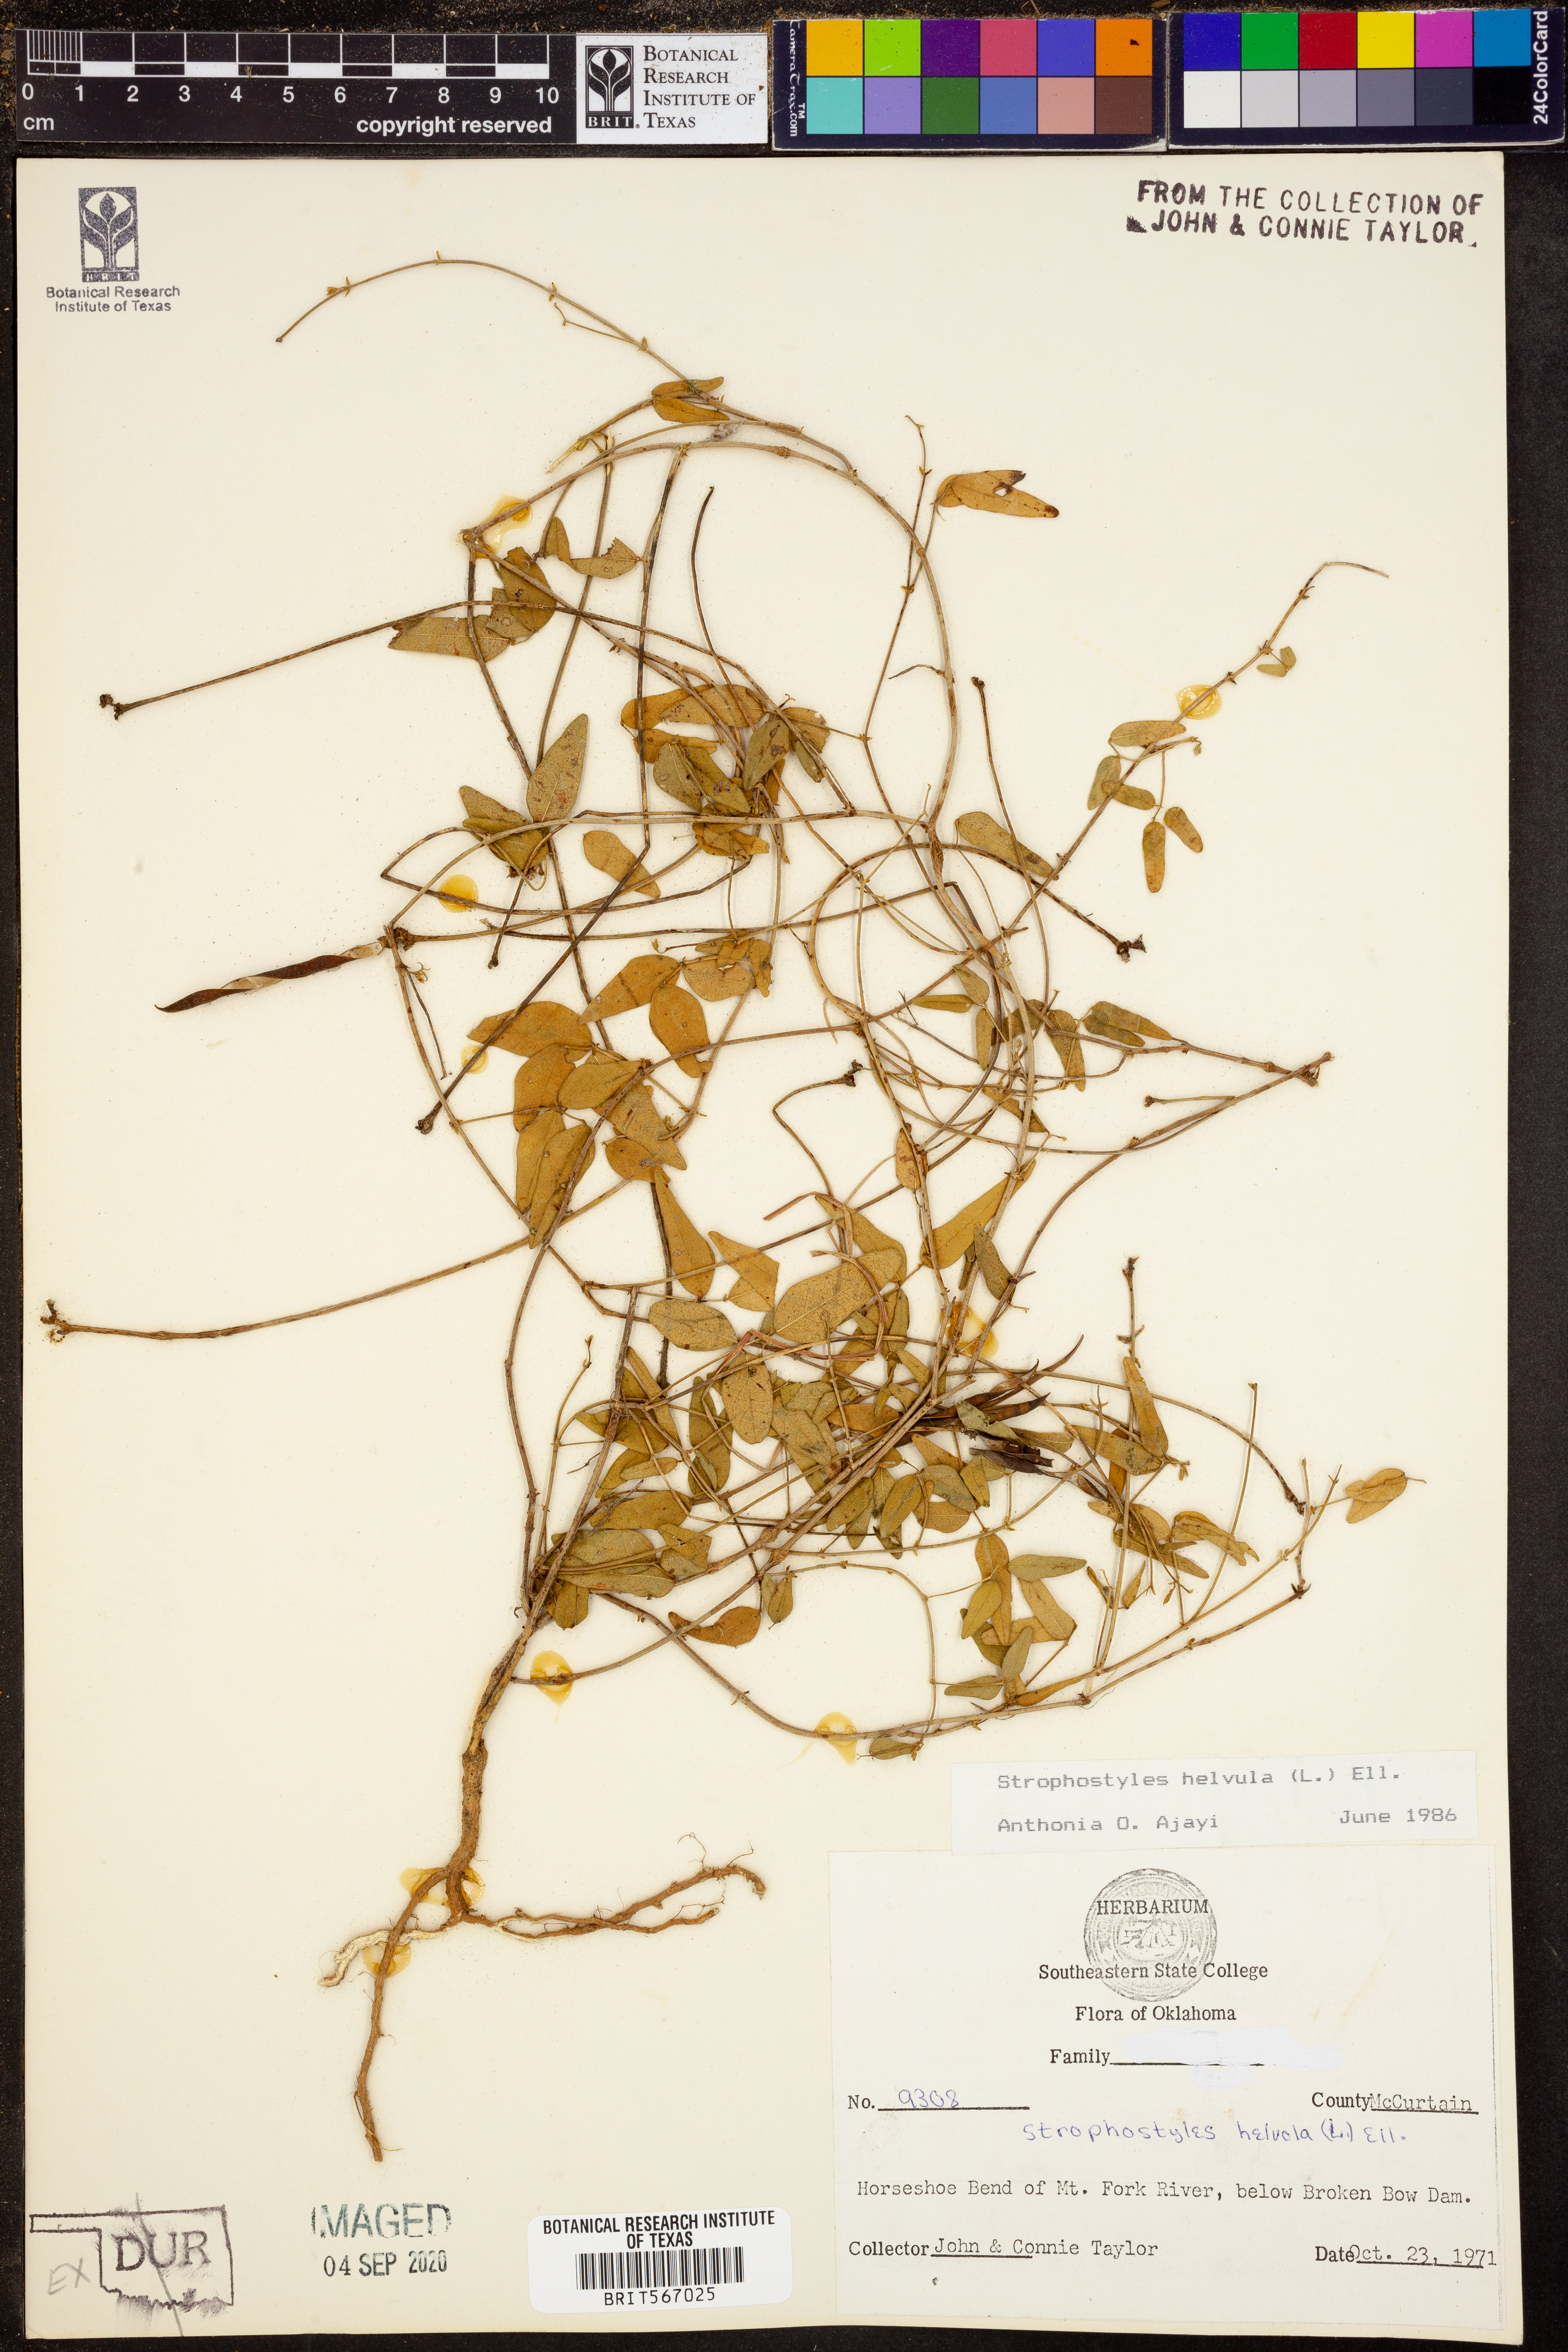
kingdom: Plantae
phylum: Tracheophyta
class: Magnoliopsida
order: Fabales
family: Fabaceae
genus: Strophostyles
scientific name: Strophostyles helvula
